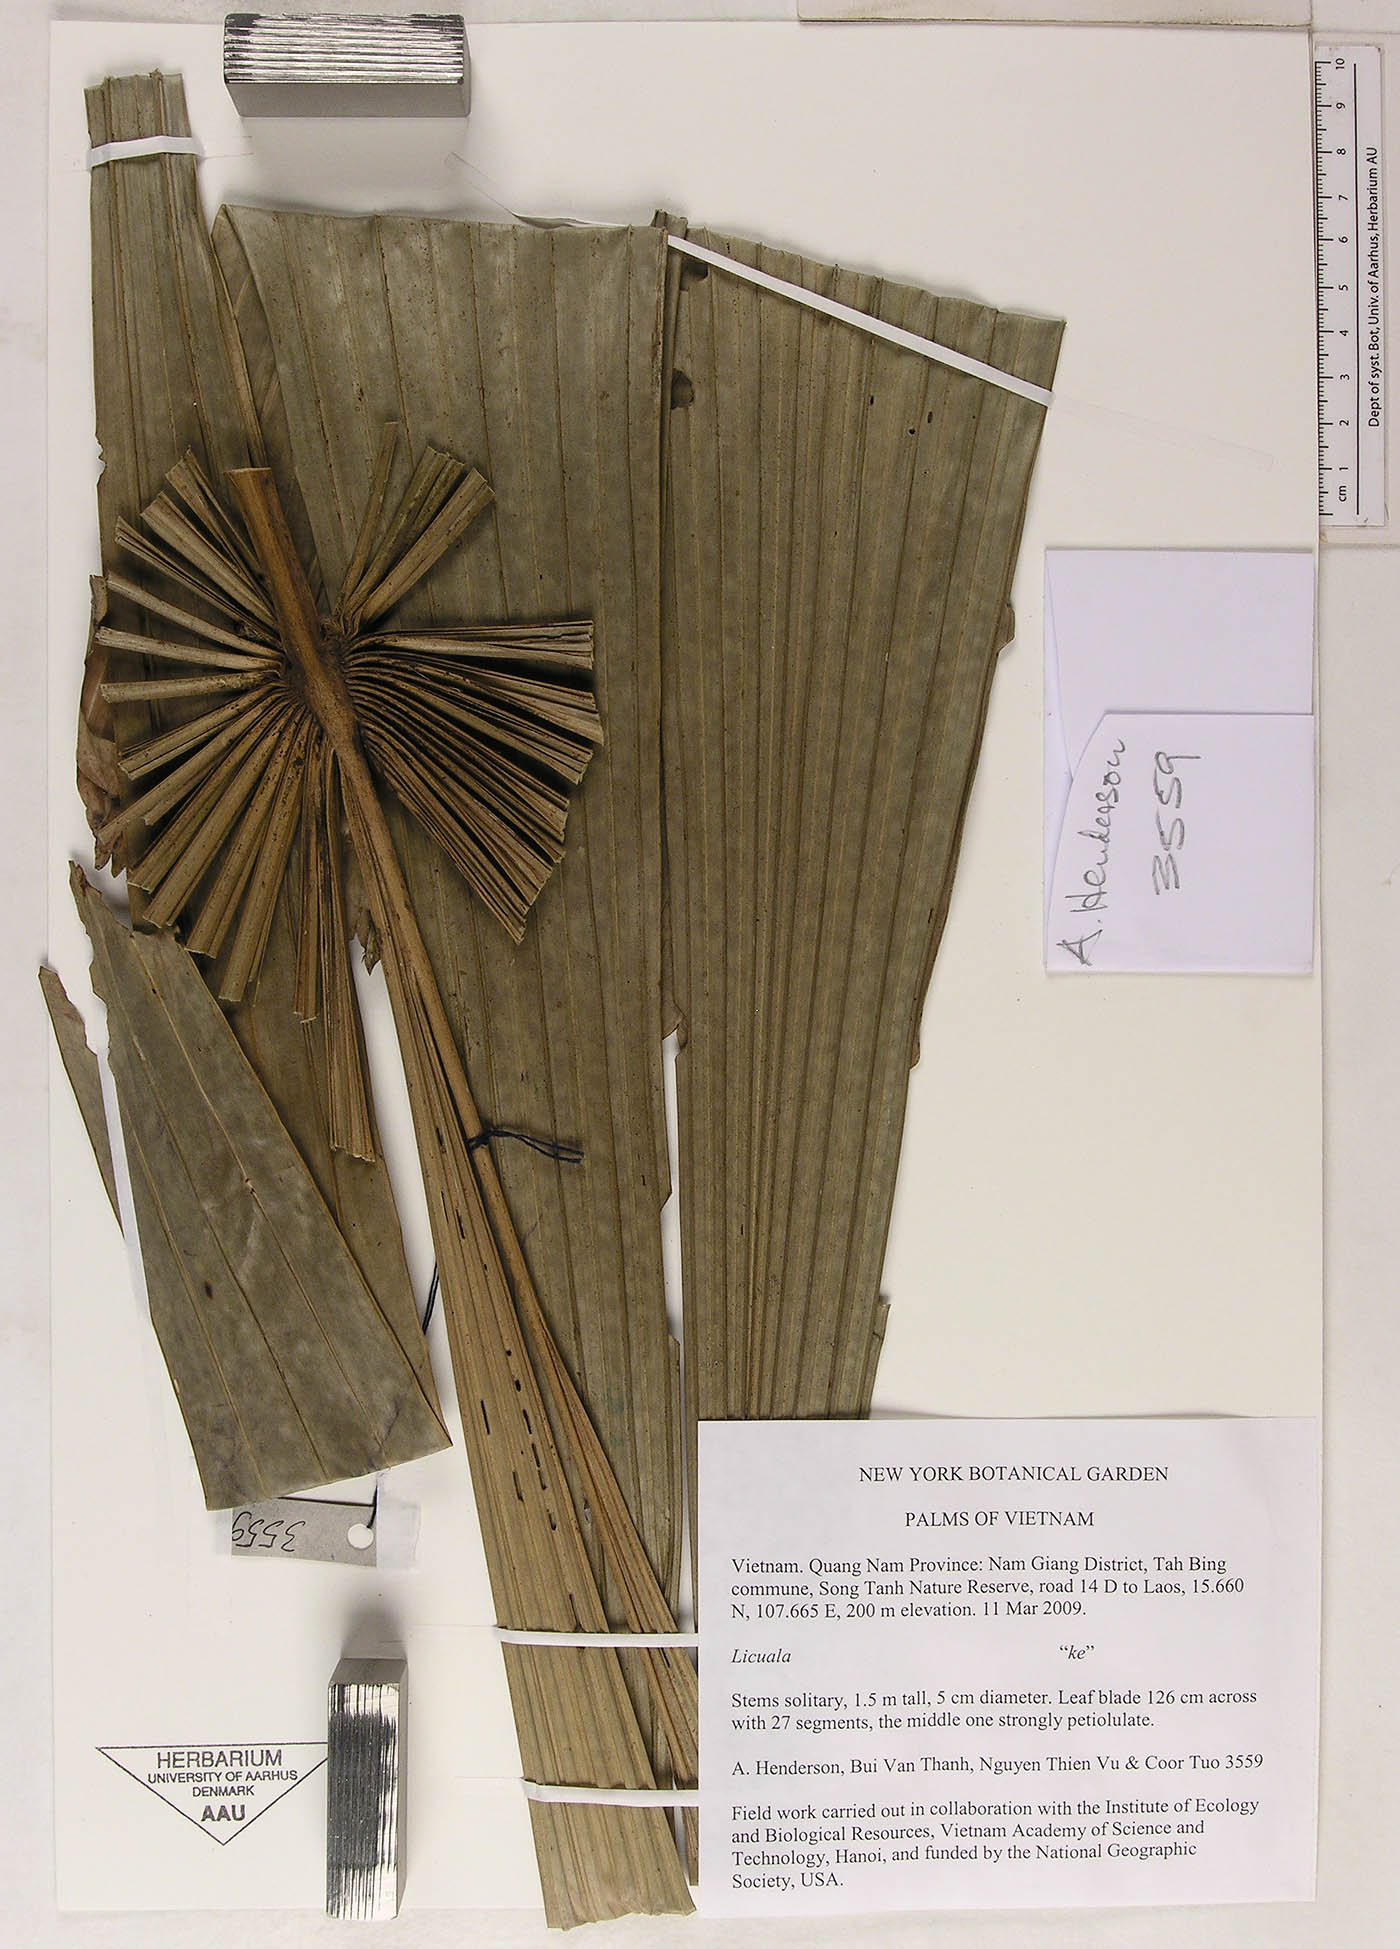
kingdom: Plantae
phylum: Tracheophyta
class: Liliopsida
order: Arecales
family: Arecaceae
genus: Licuala
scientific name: Licuala
